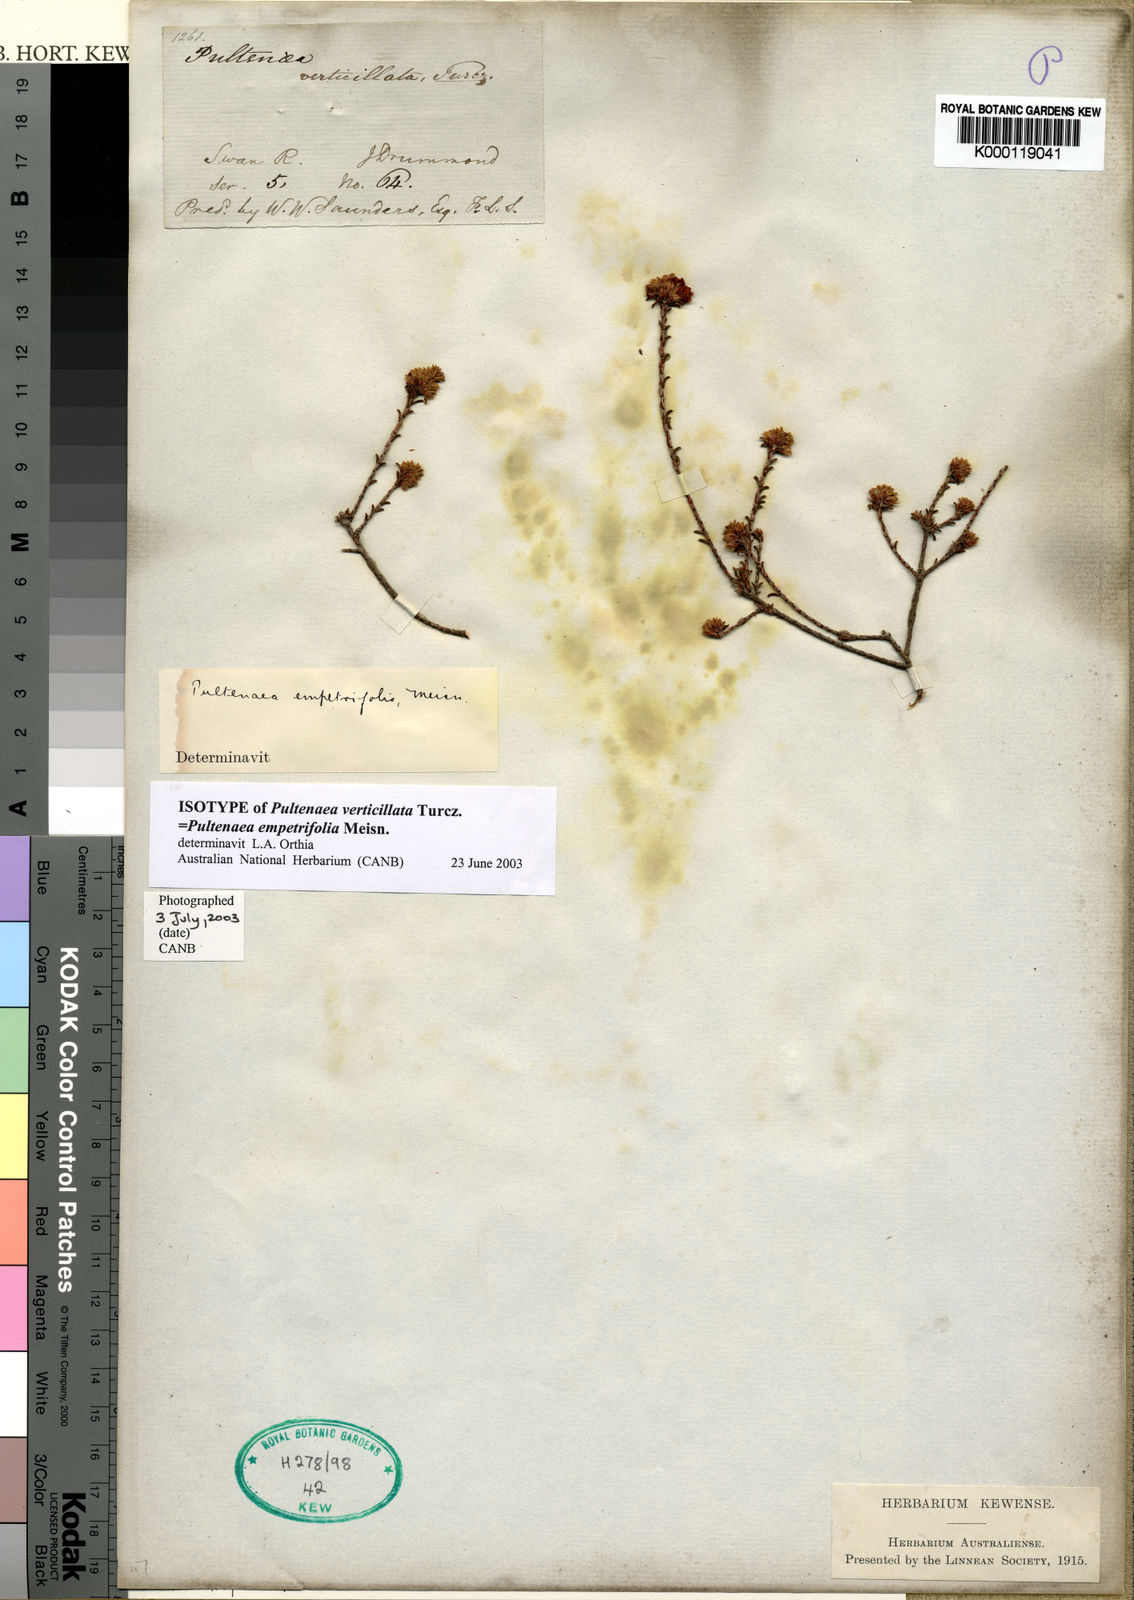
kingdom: Plantae
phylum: Tracheophyta
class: Magnoliopsida
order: Fabales
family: Fabaceae
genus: Pultenaea
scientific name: Pultenaea empetrifolia
